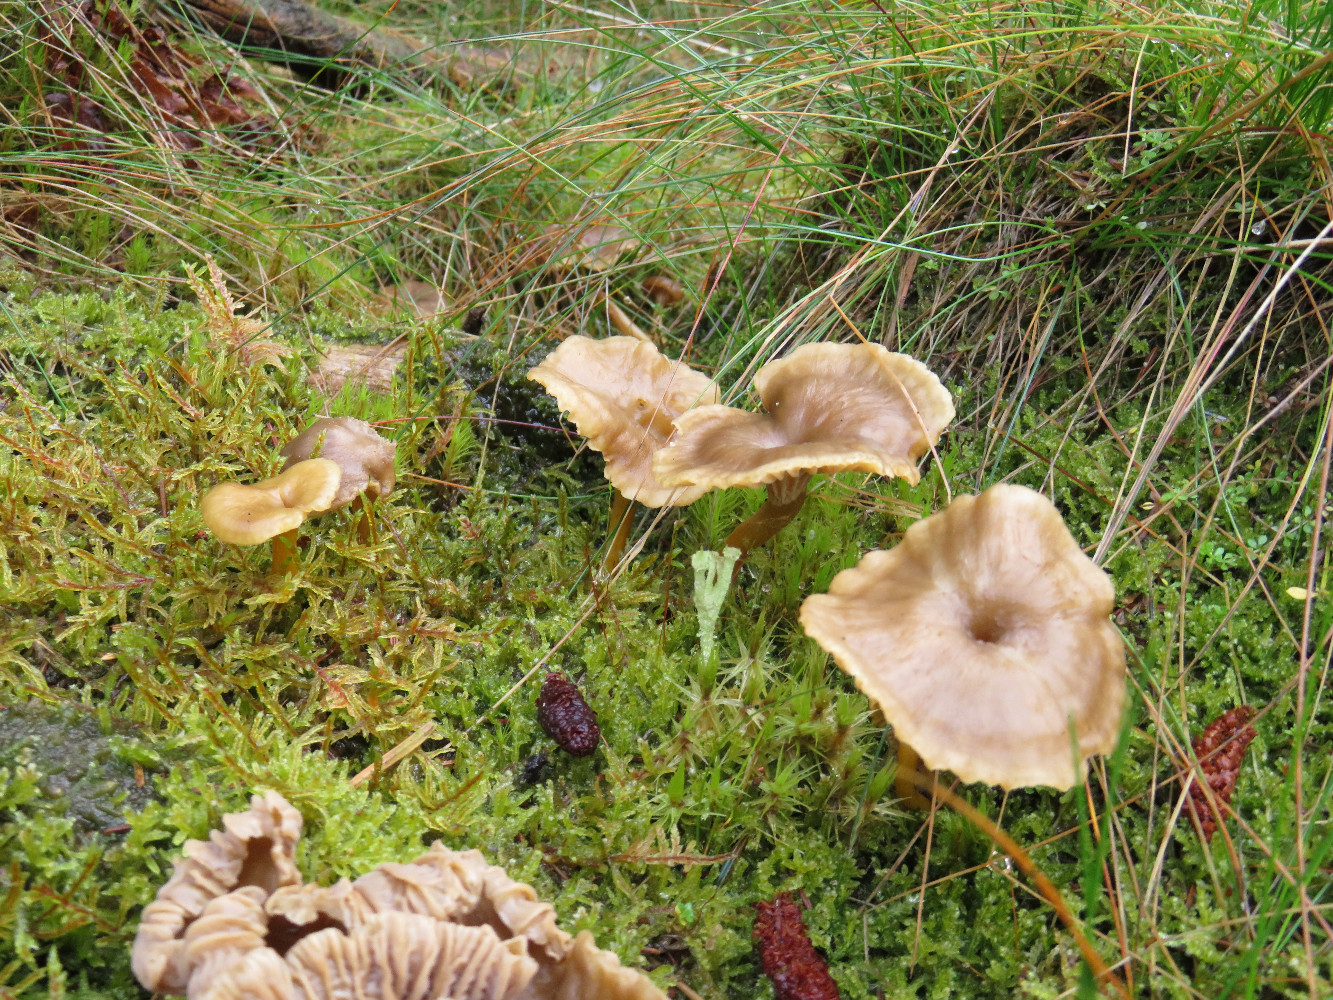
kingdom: Fungi
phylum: Basidiomycota
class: Agaricomycetes
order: Cantharellales
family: Hydnaceae
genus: Craterellus
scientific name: Craterellus tubaeformis
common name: tragt-kantarel
